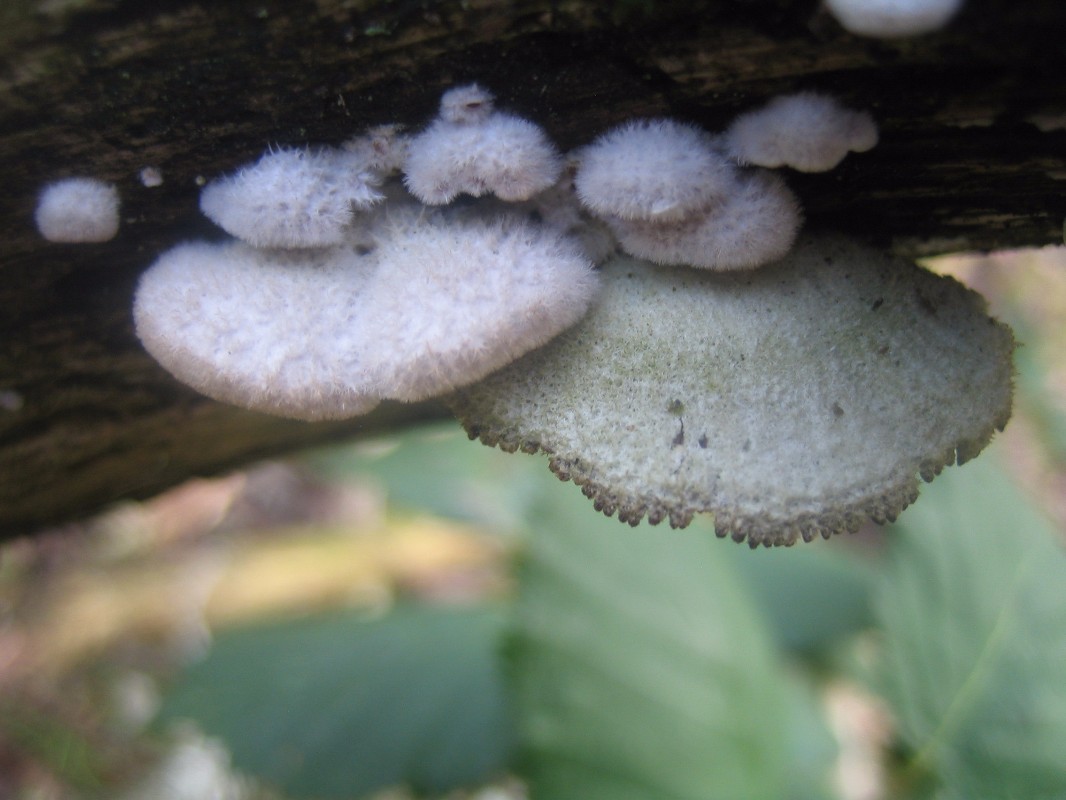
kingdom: Fungi
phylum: Basidiomycota
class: Agaricomycetes
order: Agaricales
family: Schizophyllaceae
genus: Schizophyllum
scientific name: Schizophyllum commune
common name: kløvblad
